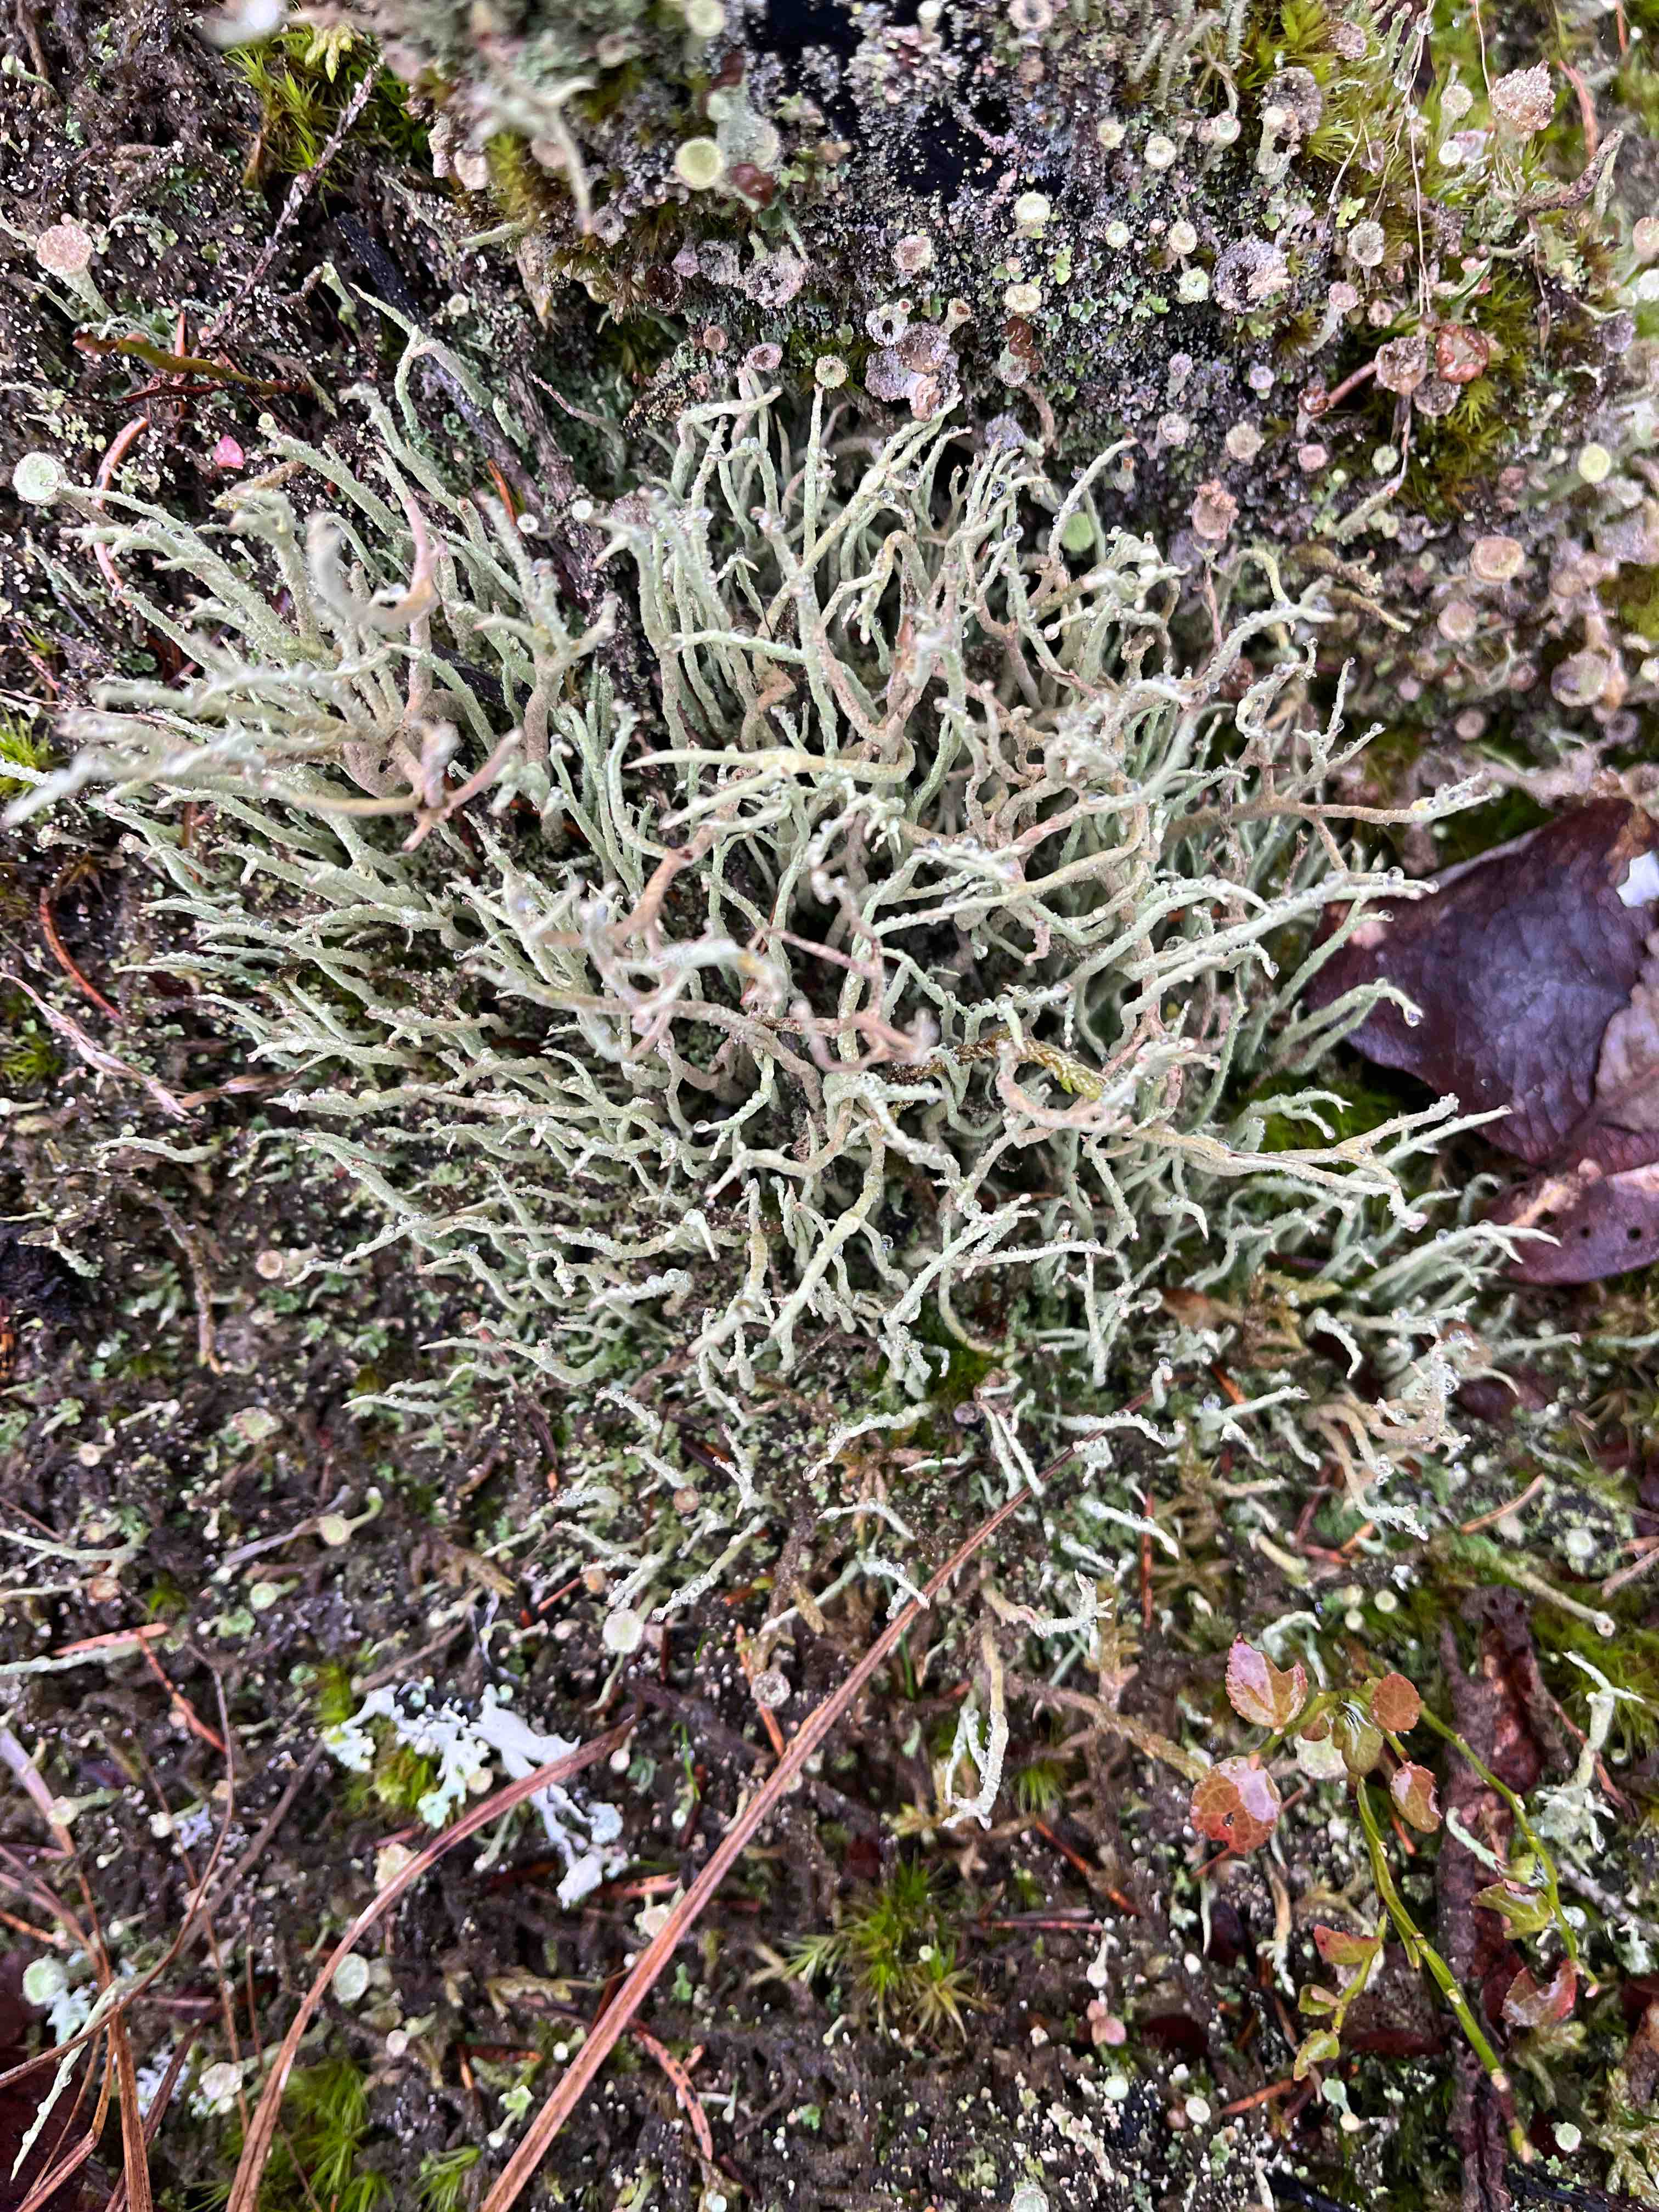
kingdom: Fungi
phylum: Ascomycota
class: Lecanoromycetes
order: Lecanorales
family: Cladoniaceae
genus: Cladonia
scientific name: Cladonia
